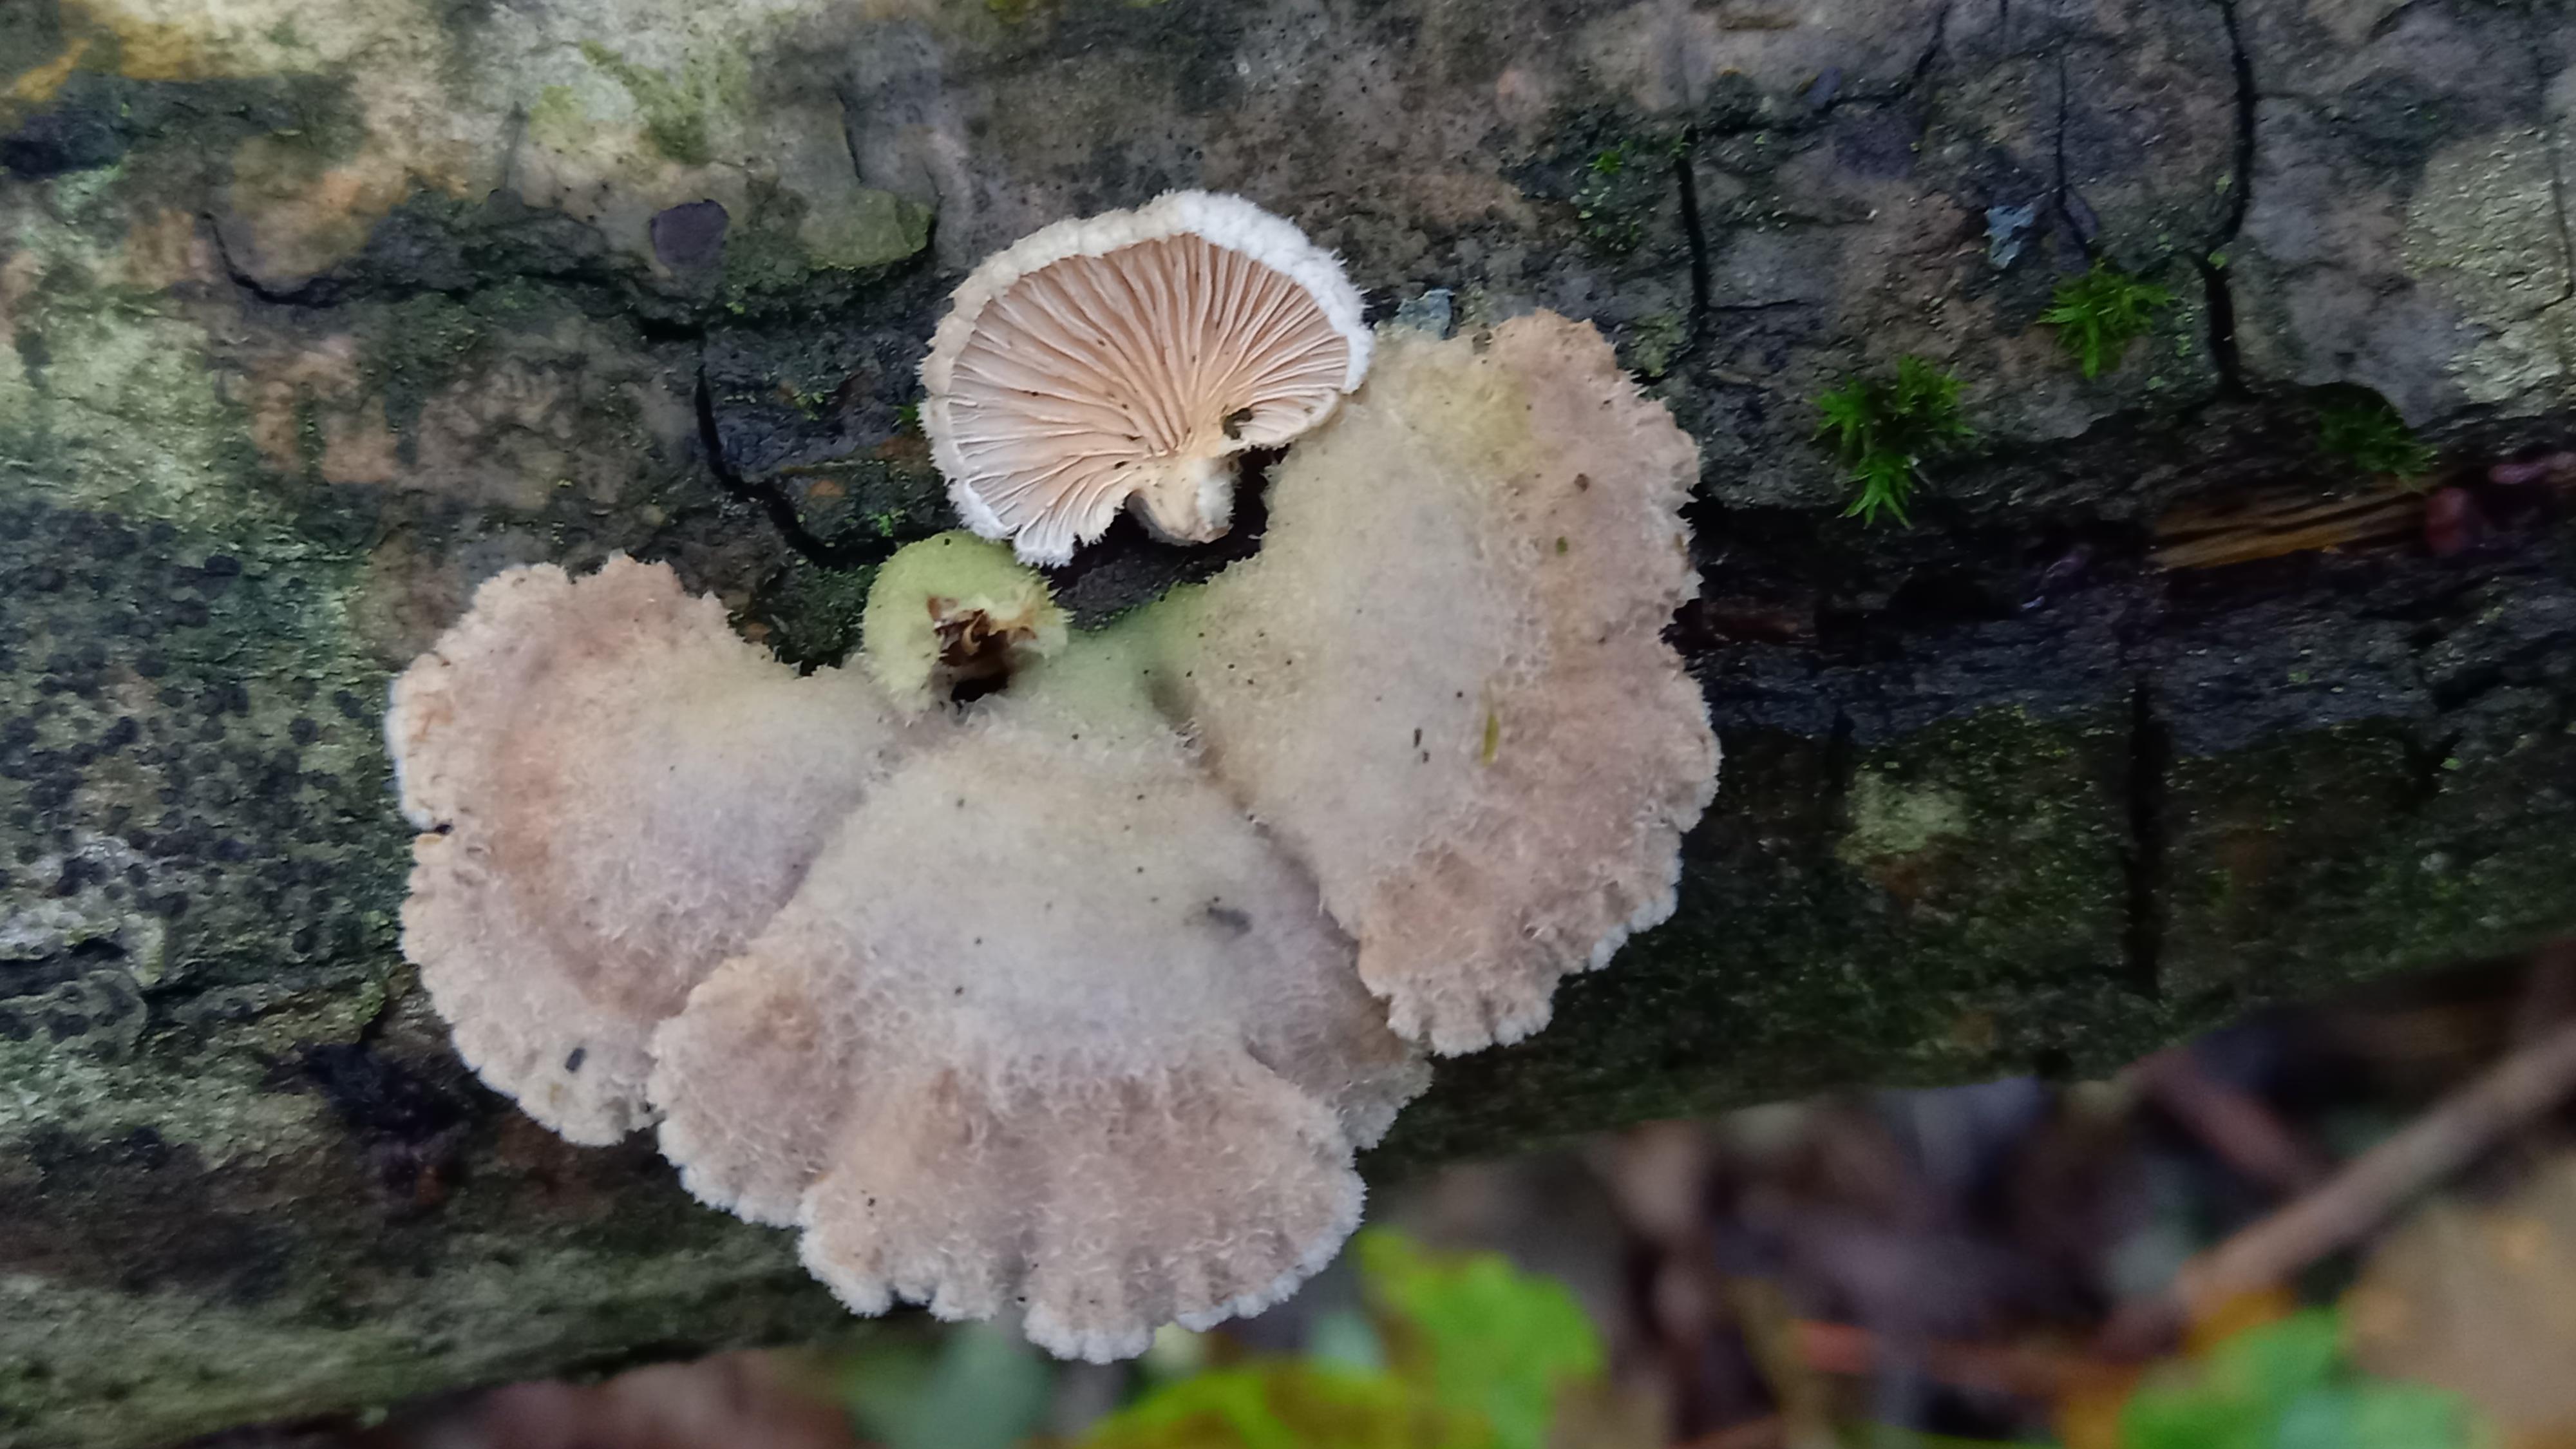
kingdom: Fungi
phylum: Basidiomycota
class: Agaricomycetes
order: Agaricales
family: Schizophyllaceae
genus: Schizophyllum
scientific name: Schizophyllum commune
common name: kløvblad
